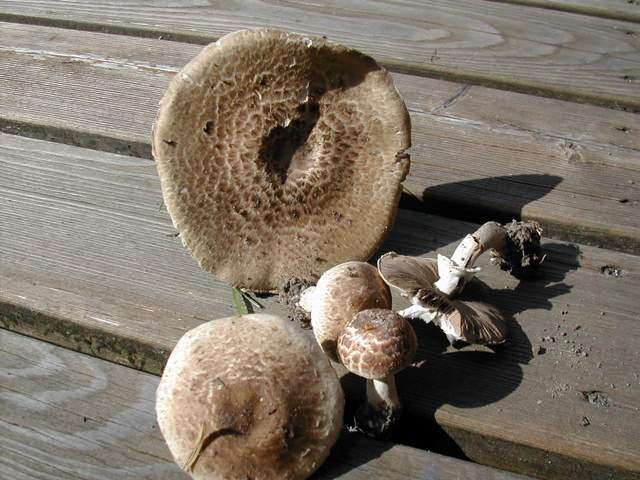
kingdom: Fungi
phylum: Basidiomycota
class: Agaricomycetes
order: Agaricales
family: Agaricaceae
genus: Agaricus
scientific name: Agaricus impudicus
